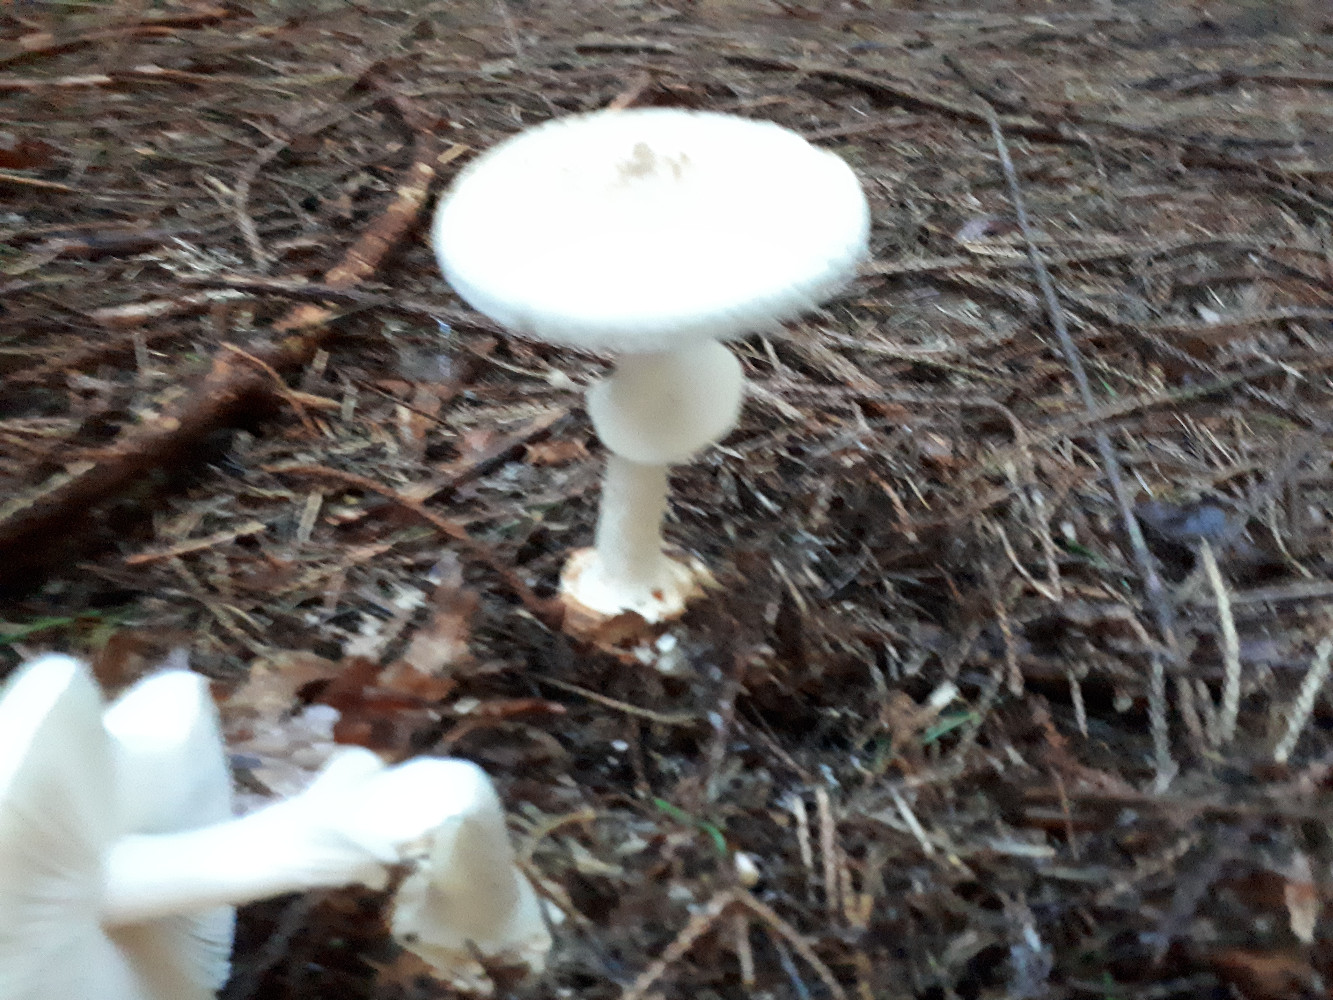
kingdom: Fungi
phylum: Basidiomycota
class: Agaricomycetes
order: Agaricales
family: Amanitaceae
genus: Amanita
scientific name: Amanita citrina
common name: False death-cap
